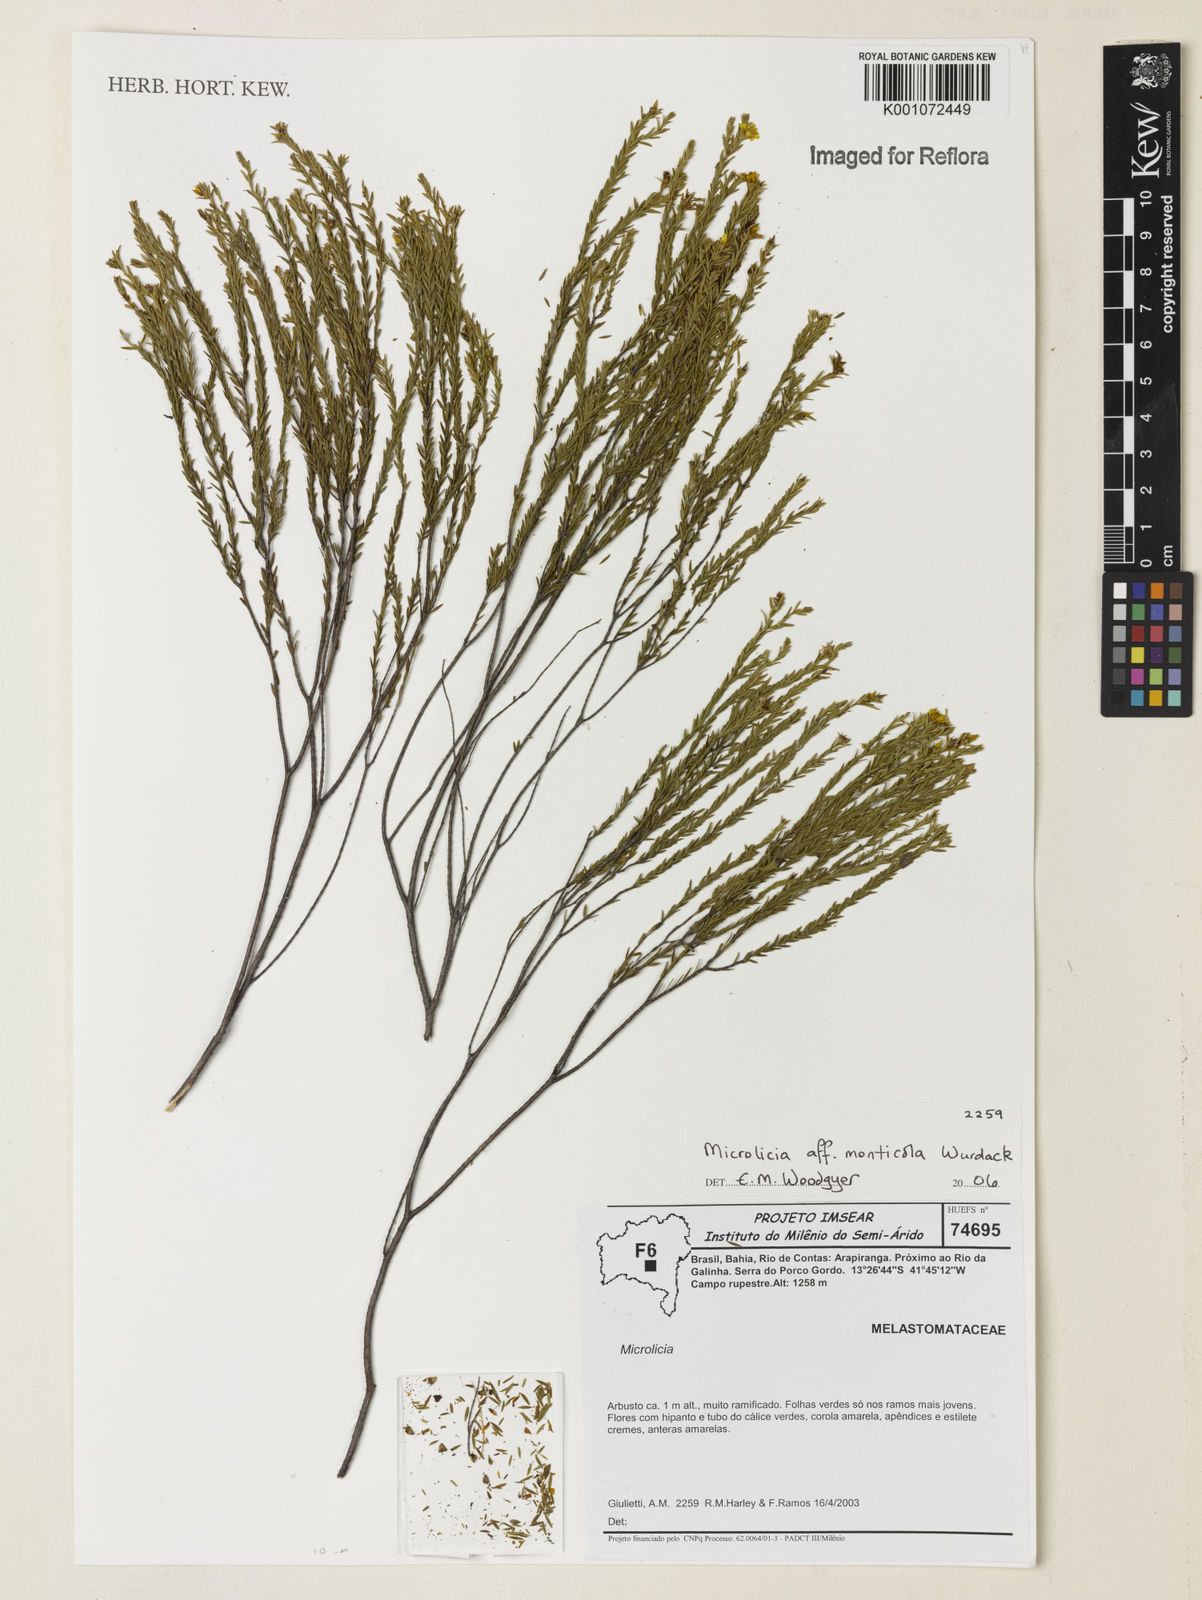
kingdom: Plantae
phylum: Tracheophyta
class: Magnoliopsida
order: Myrtales
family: Melastomataceae
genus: Microlicia
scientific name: Microlicia
